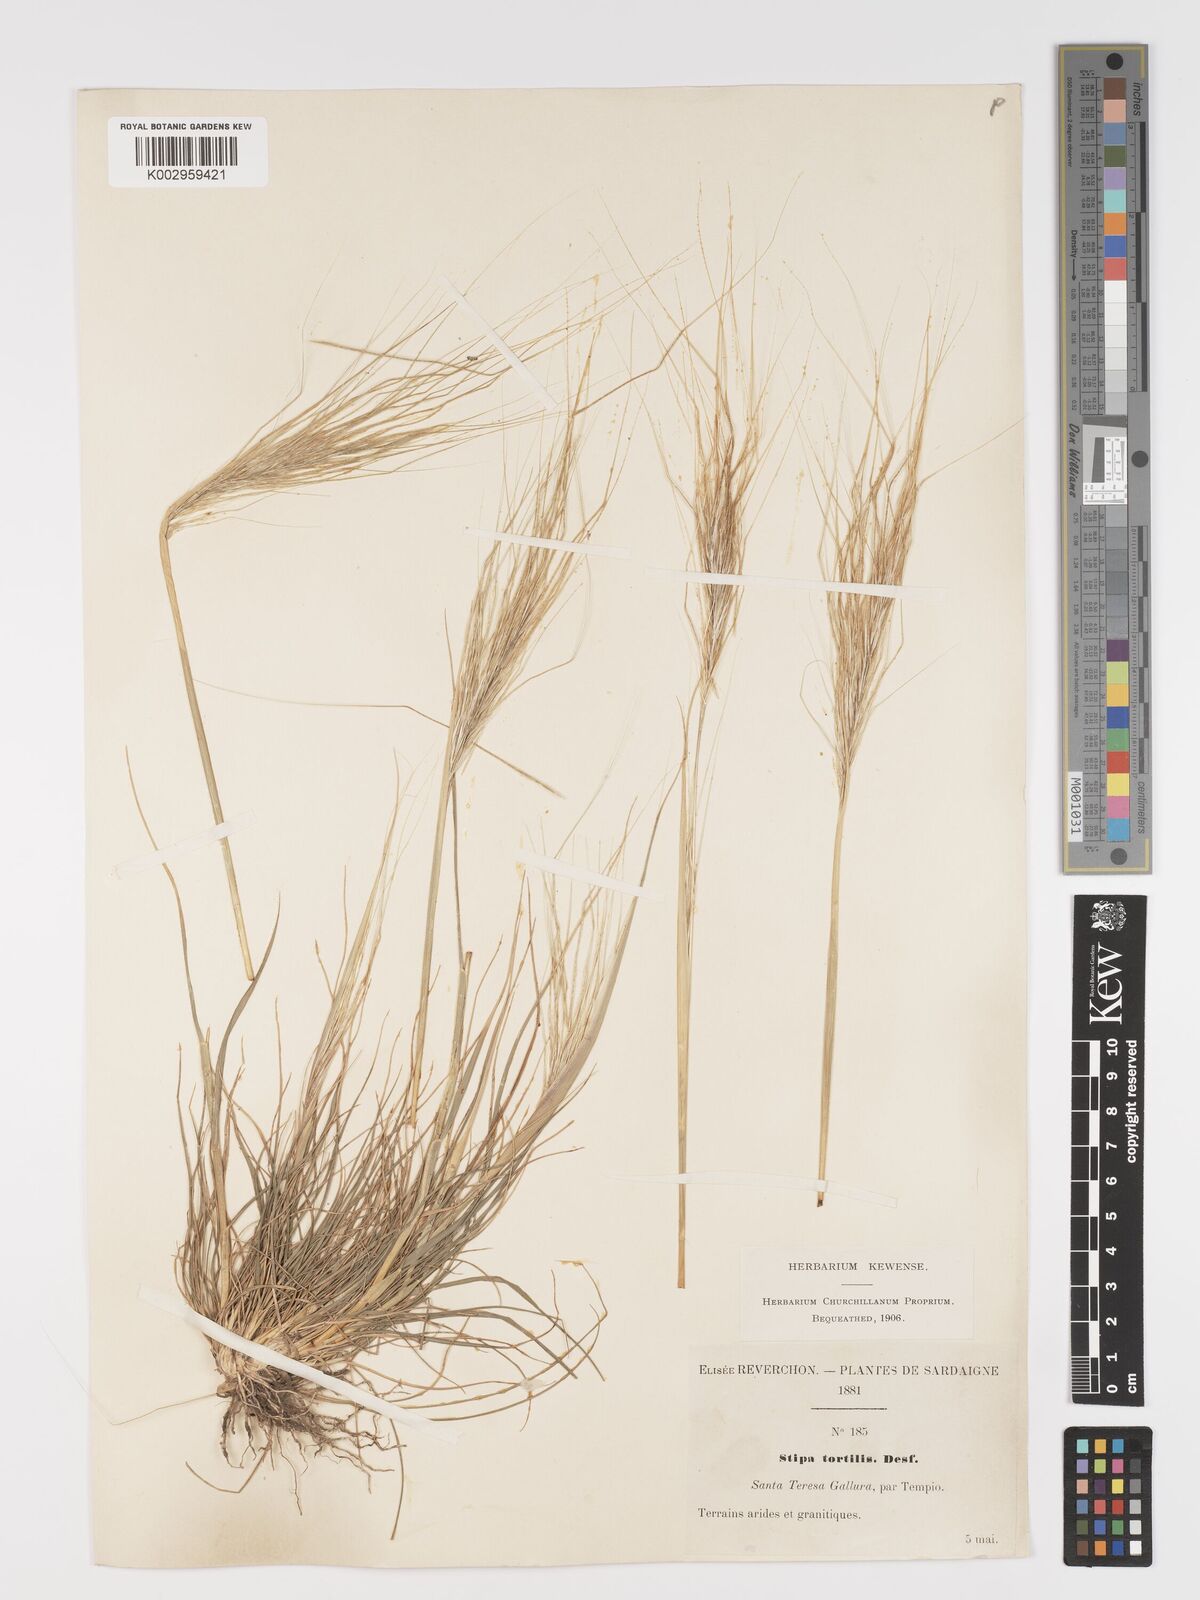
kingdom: Plantae
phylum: Tracheophyta
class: Liliopsida
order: Poales
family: Poaceae
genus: Stipa
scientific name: Stipa
